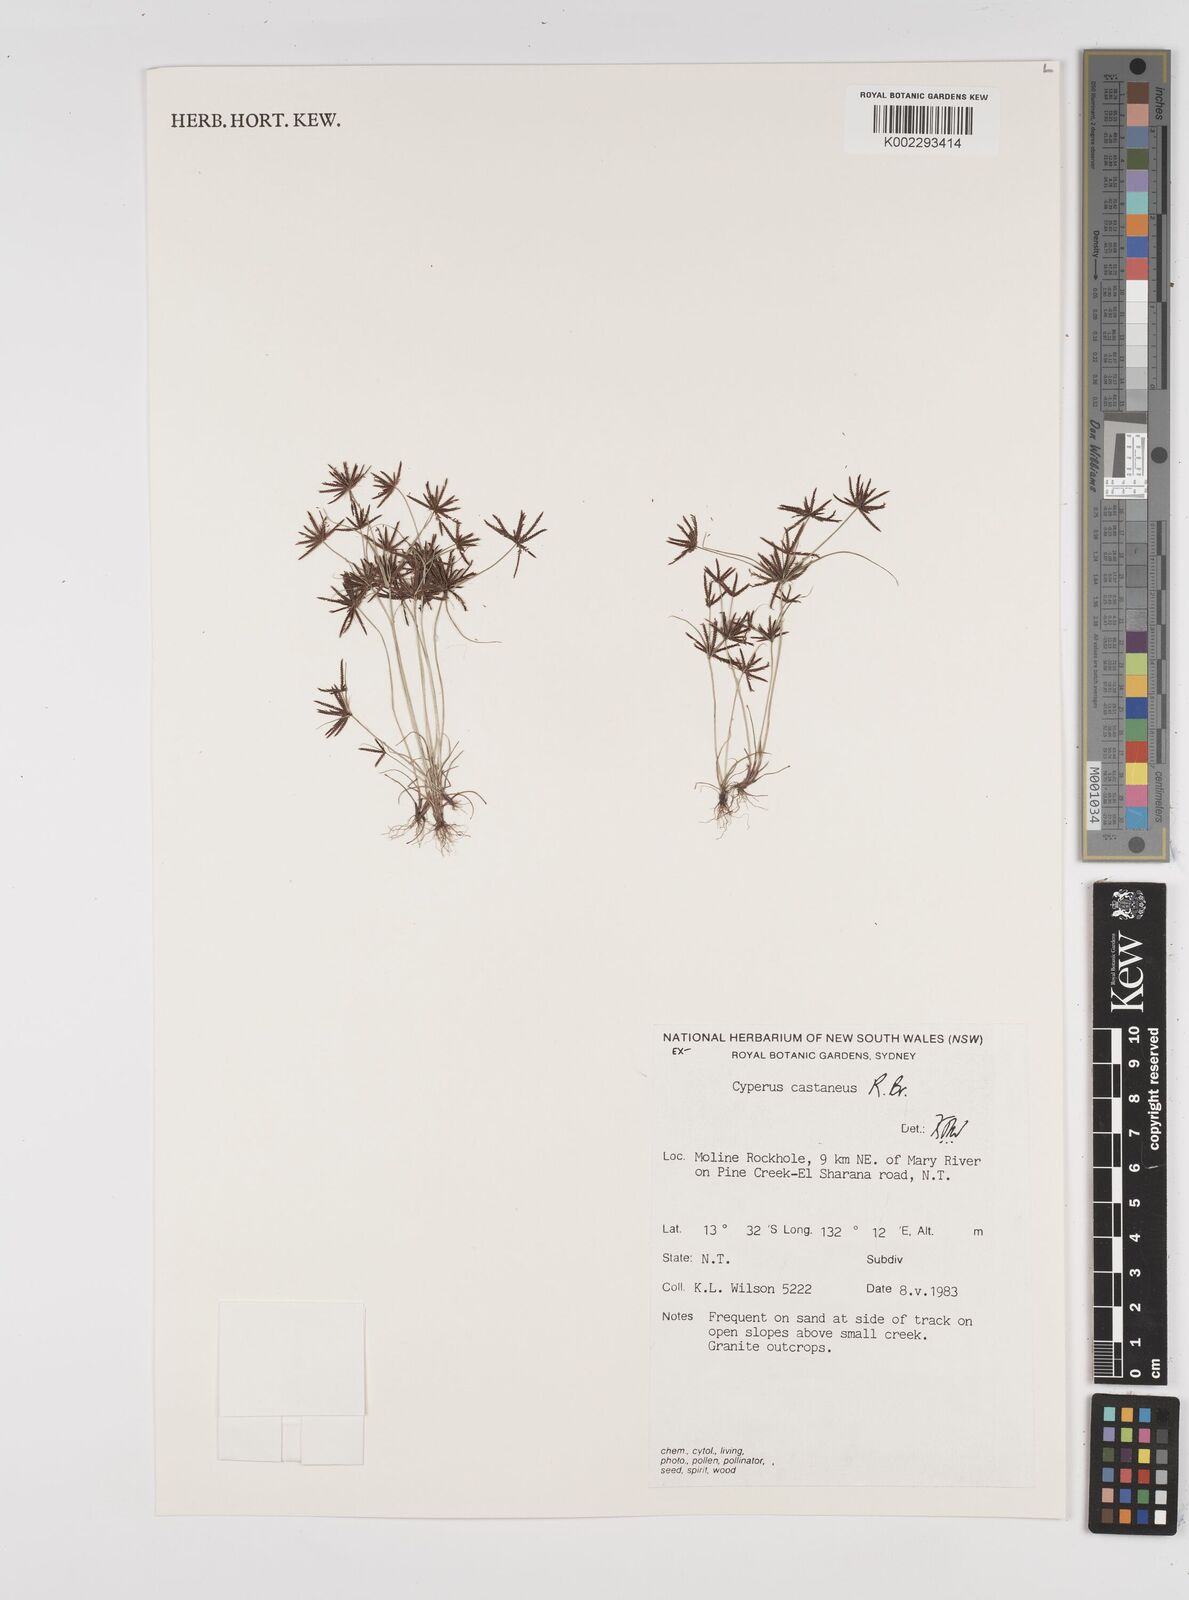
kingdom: Plantae
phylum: Tracheophyta
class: Liliopsida
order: Poales
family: Cyperaceae
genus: Cyperus
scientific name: Cyperus castaneus
